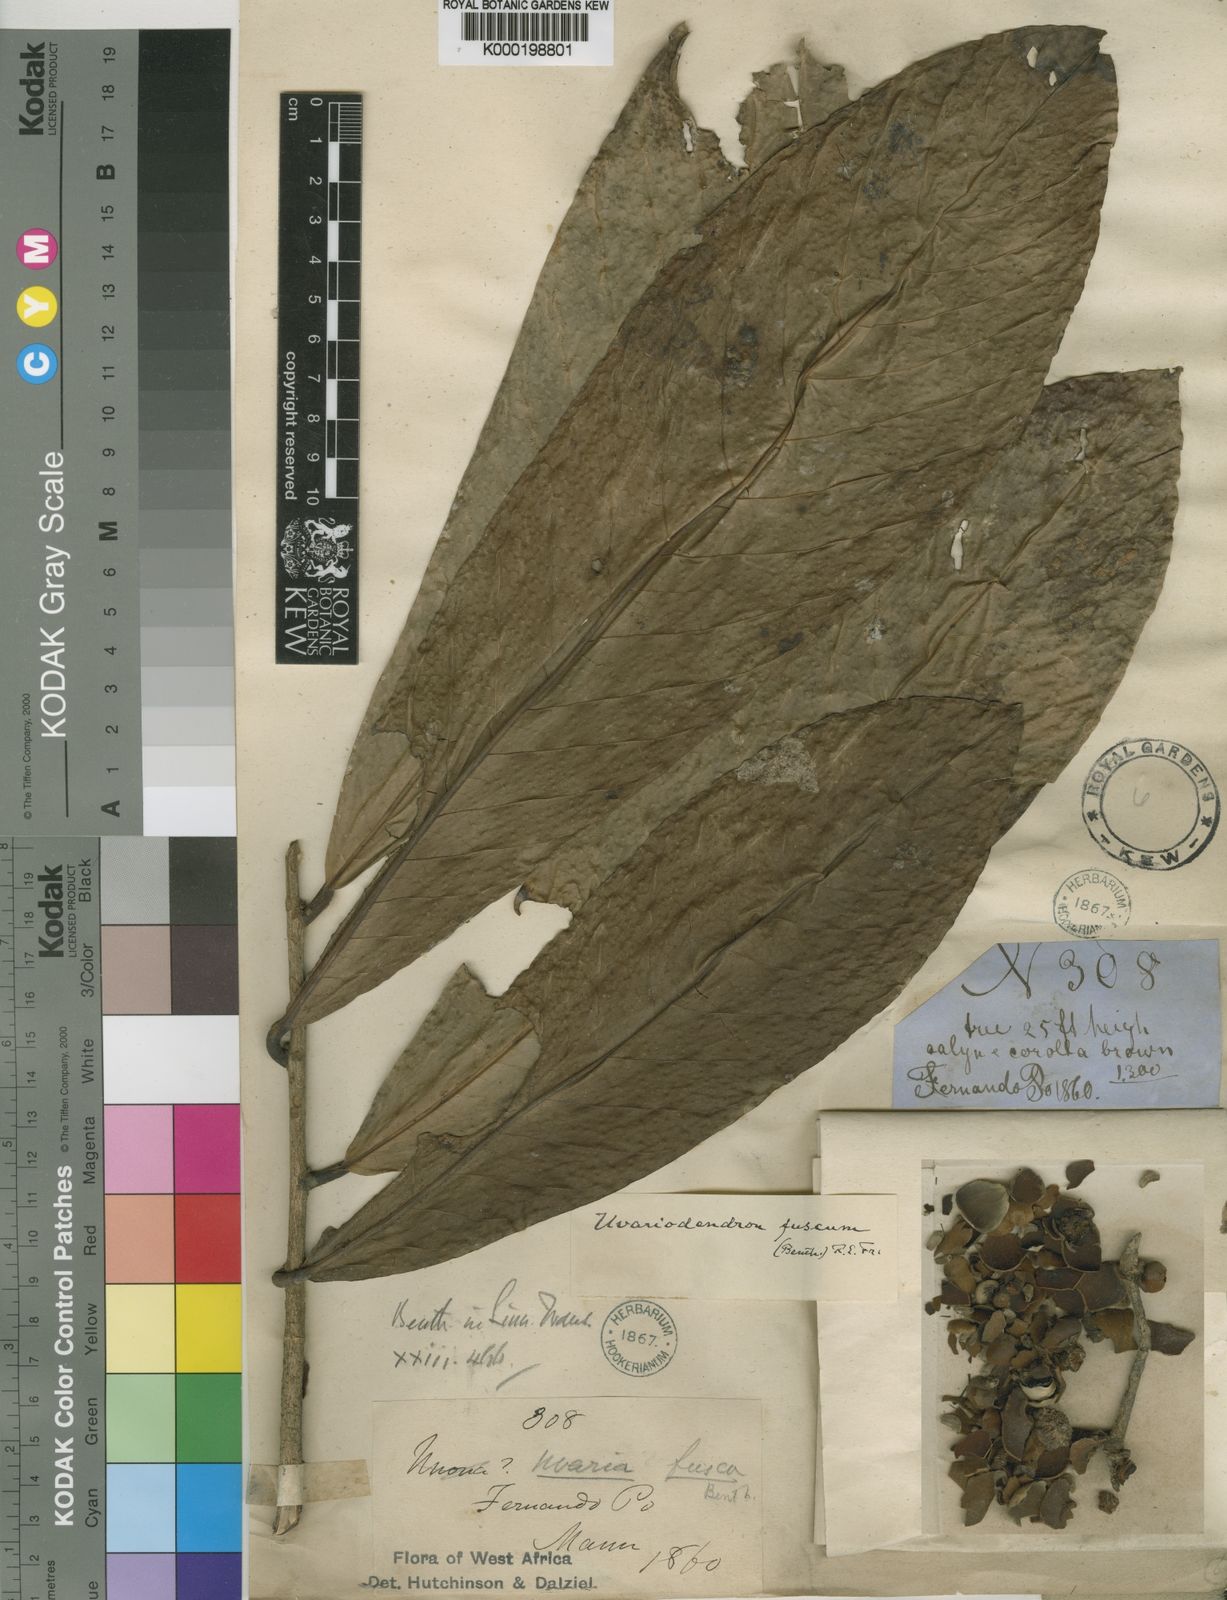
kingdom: Plantae
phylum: Tracheophyta
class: Magnoliopsida
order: Magnoliales
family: Annonaceae
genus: Uvariodendron
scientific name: Uvariodendron fuscum
